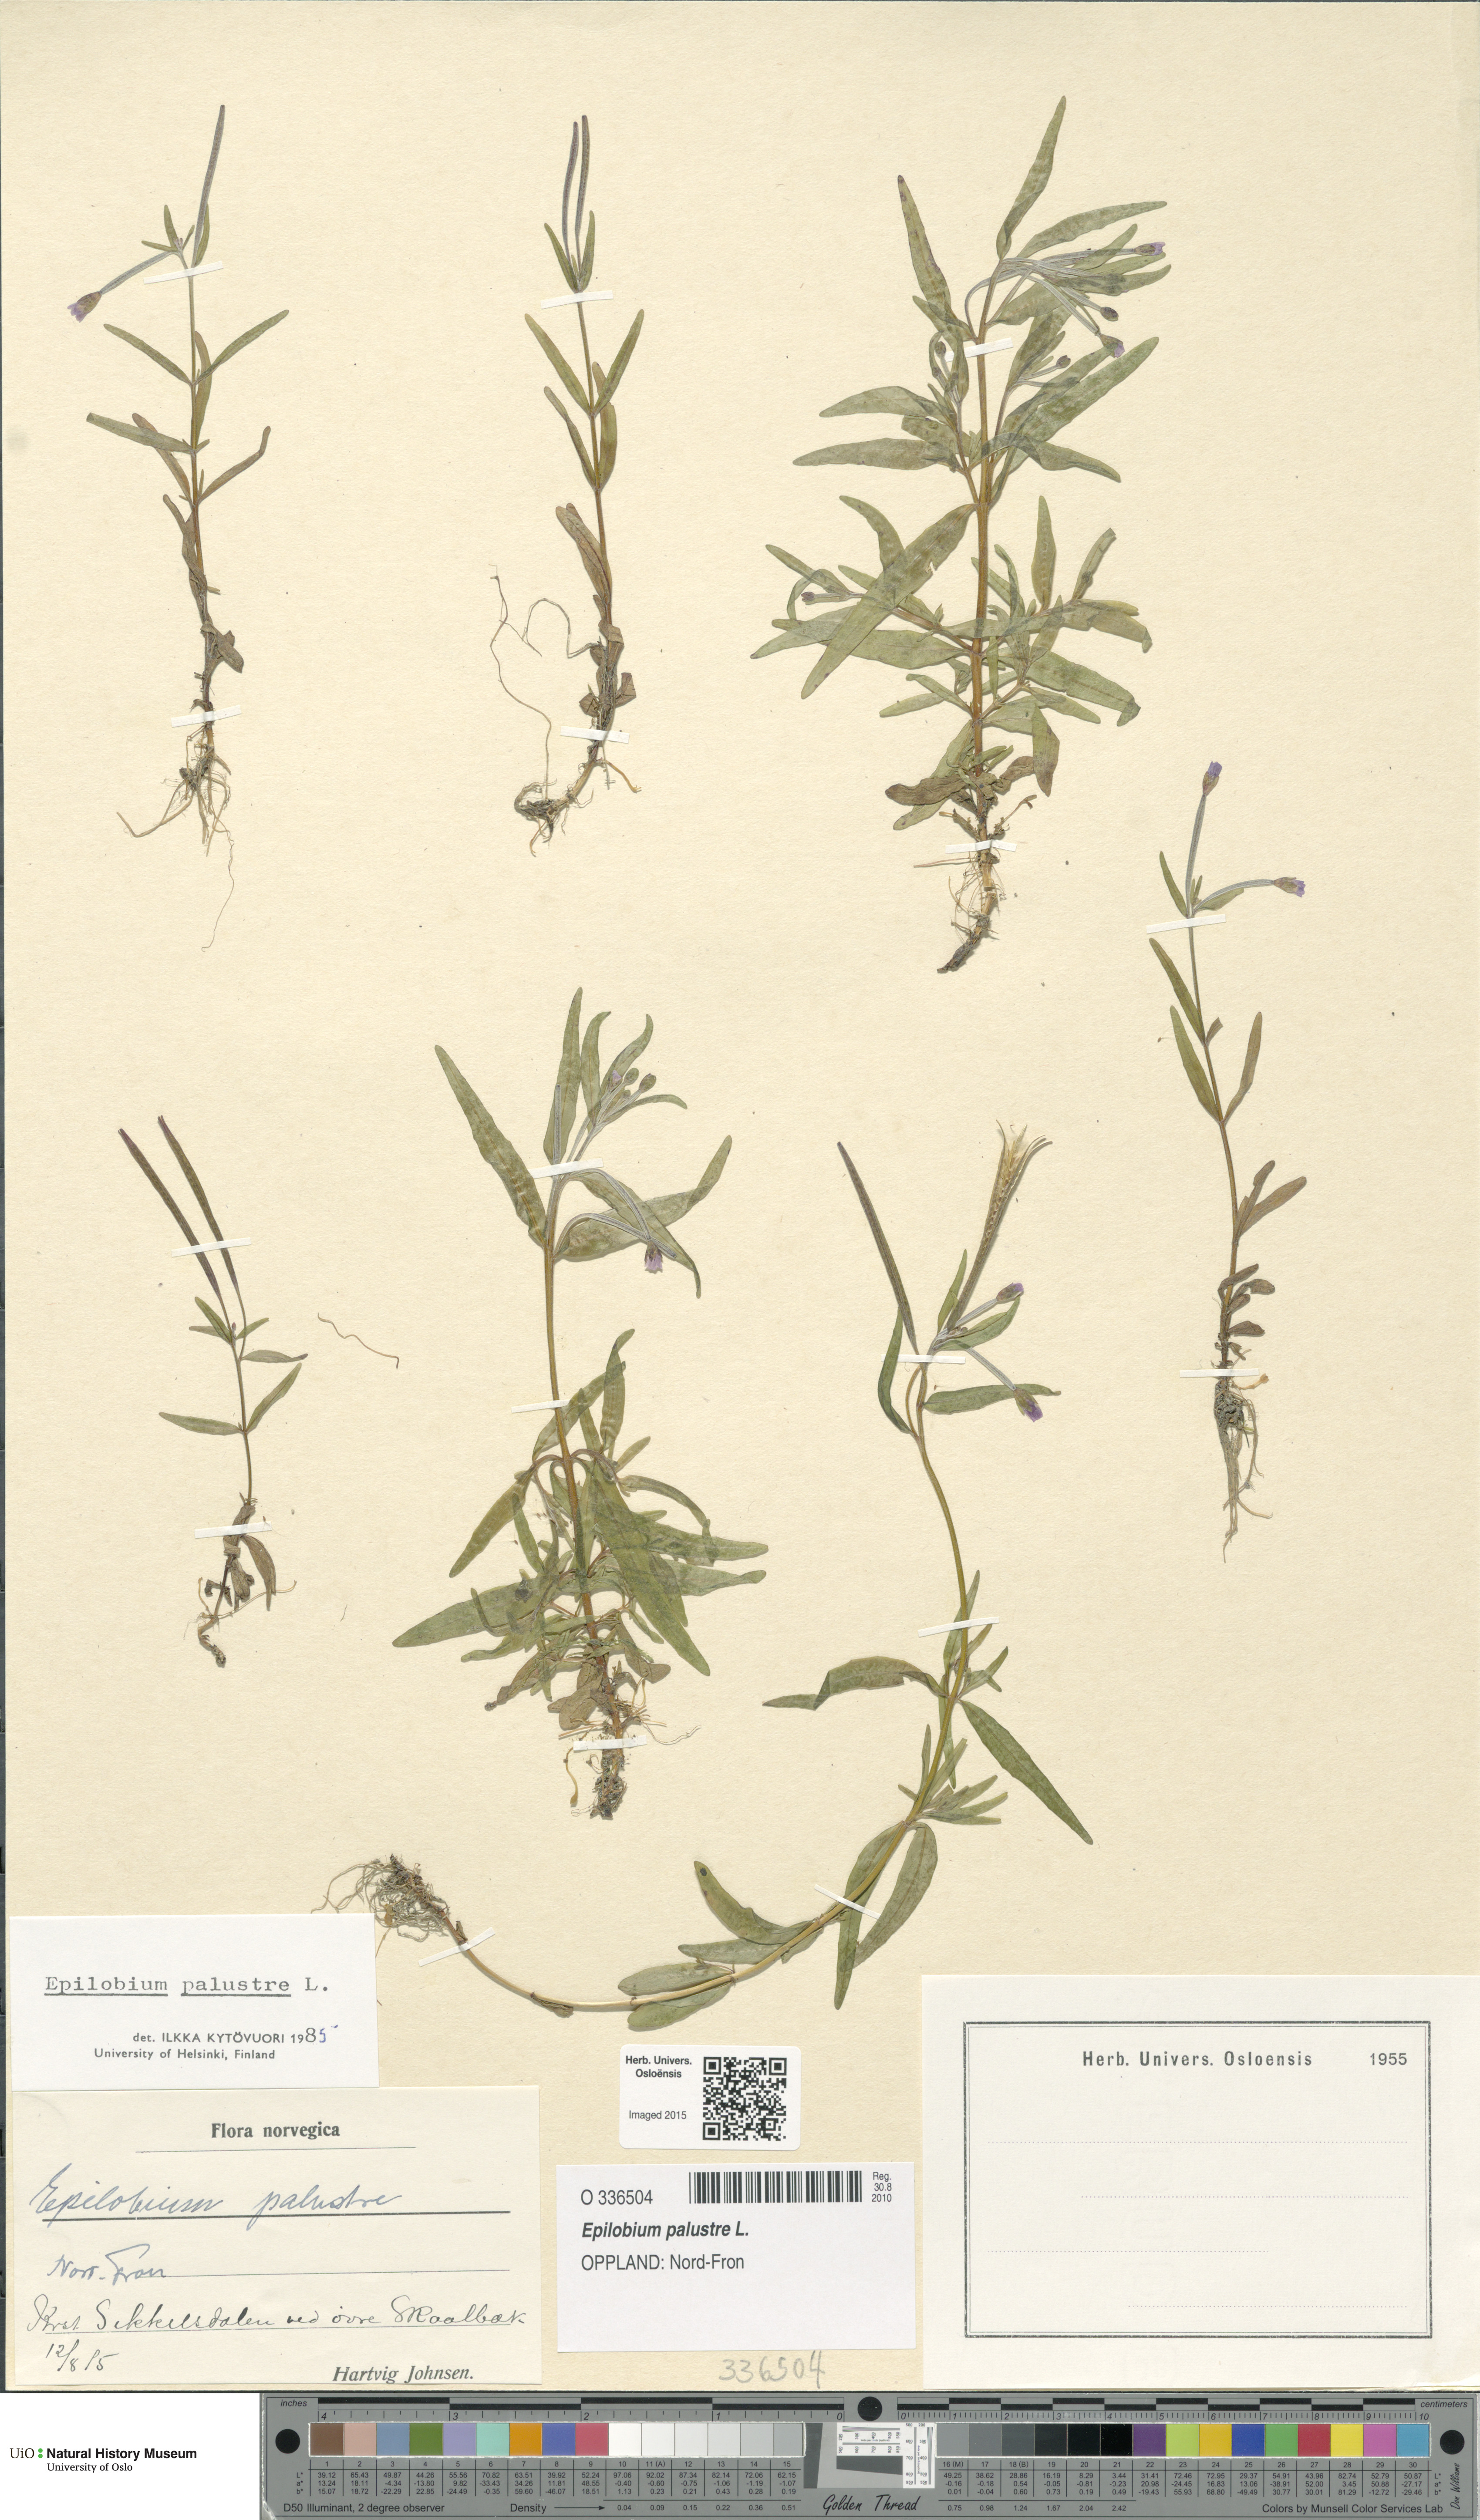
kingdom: Plantae
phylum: Tracheophyta
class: Magnoliopsida
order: Myrtales
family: Onagraceae
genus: Epilobium
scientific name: Epilobium palustre
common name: Marsh willowherb
